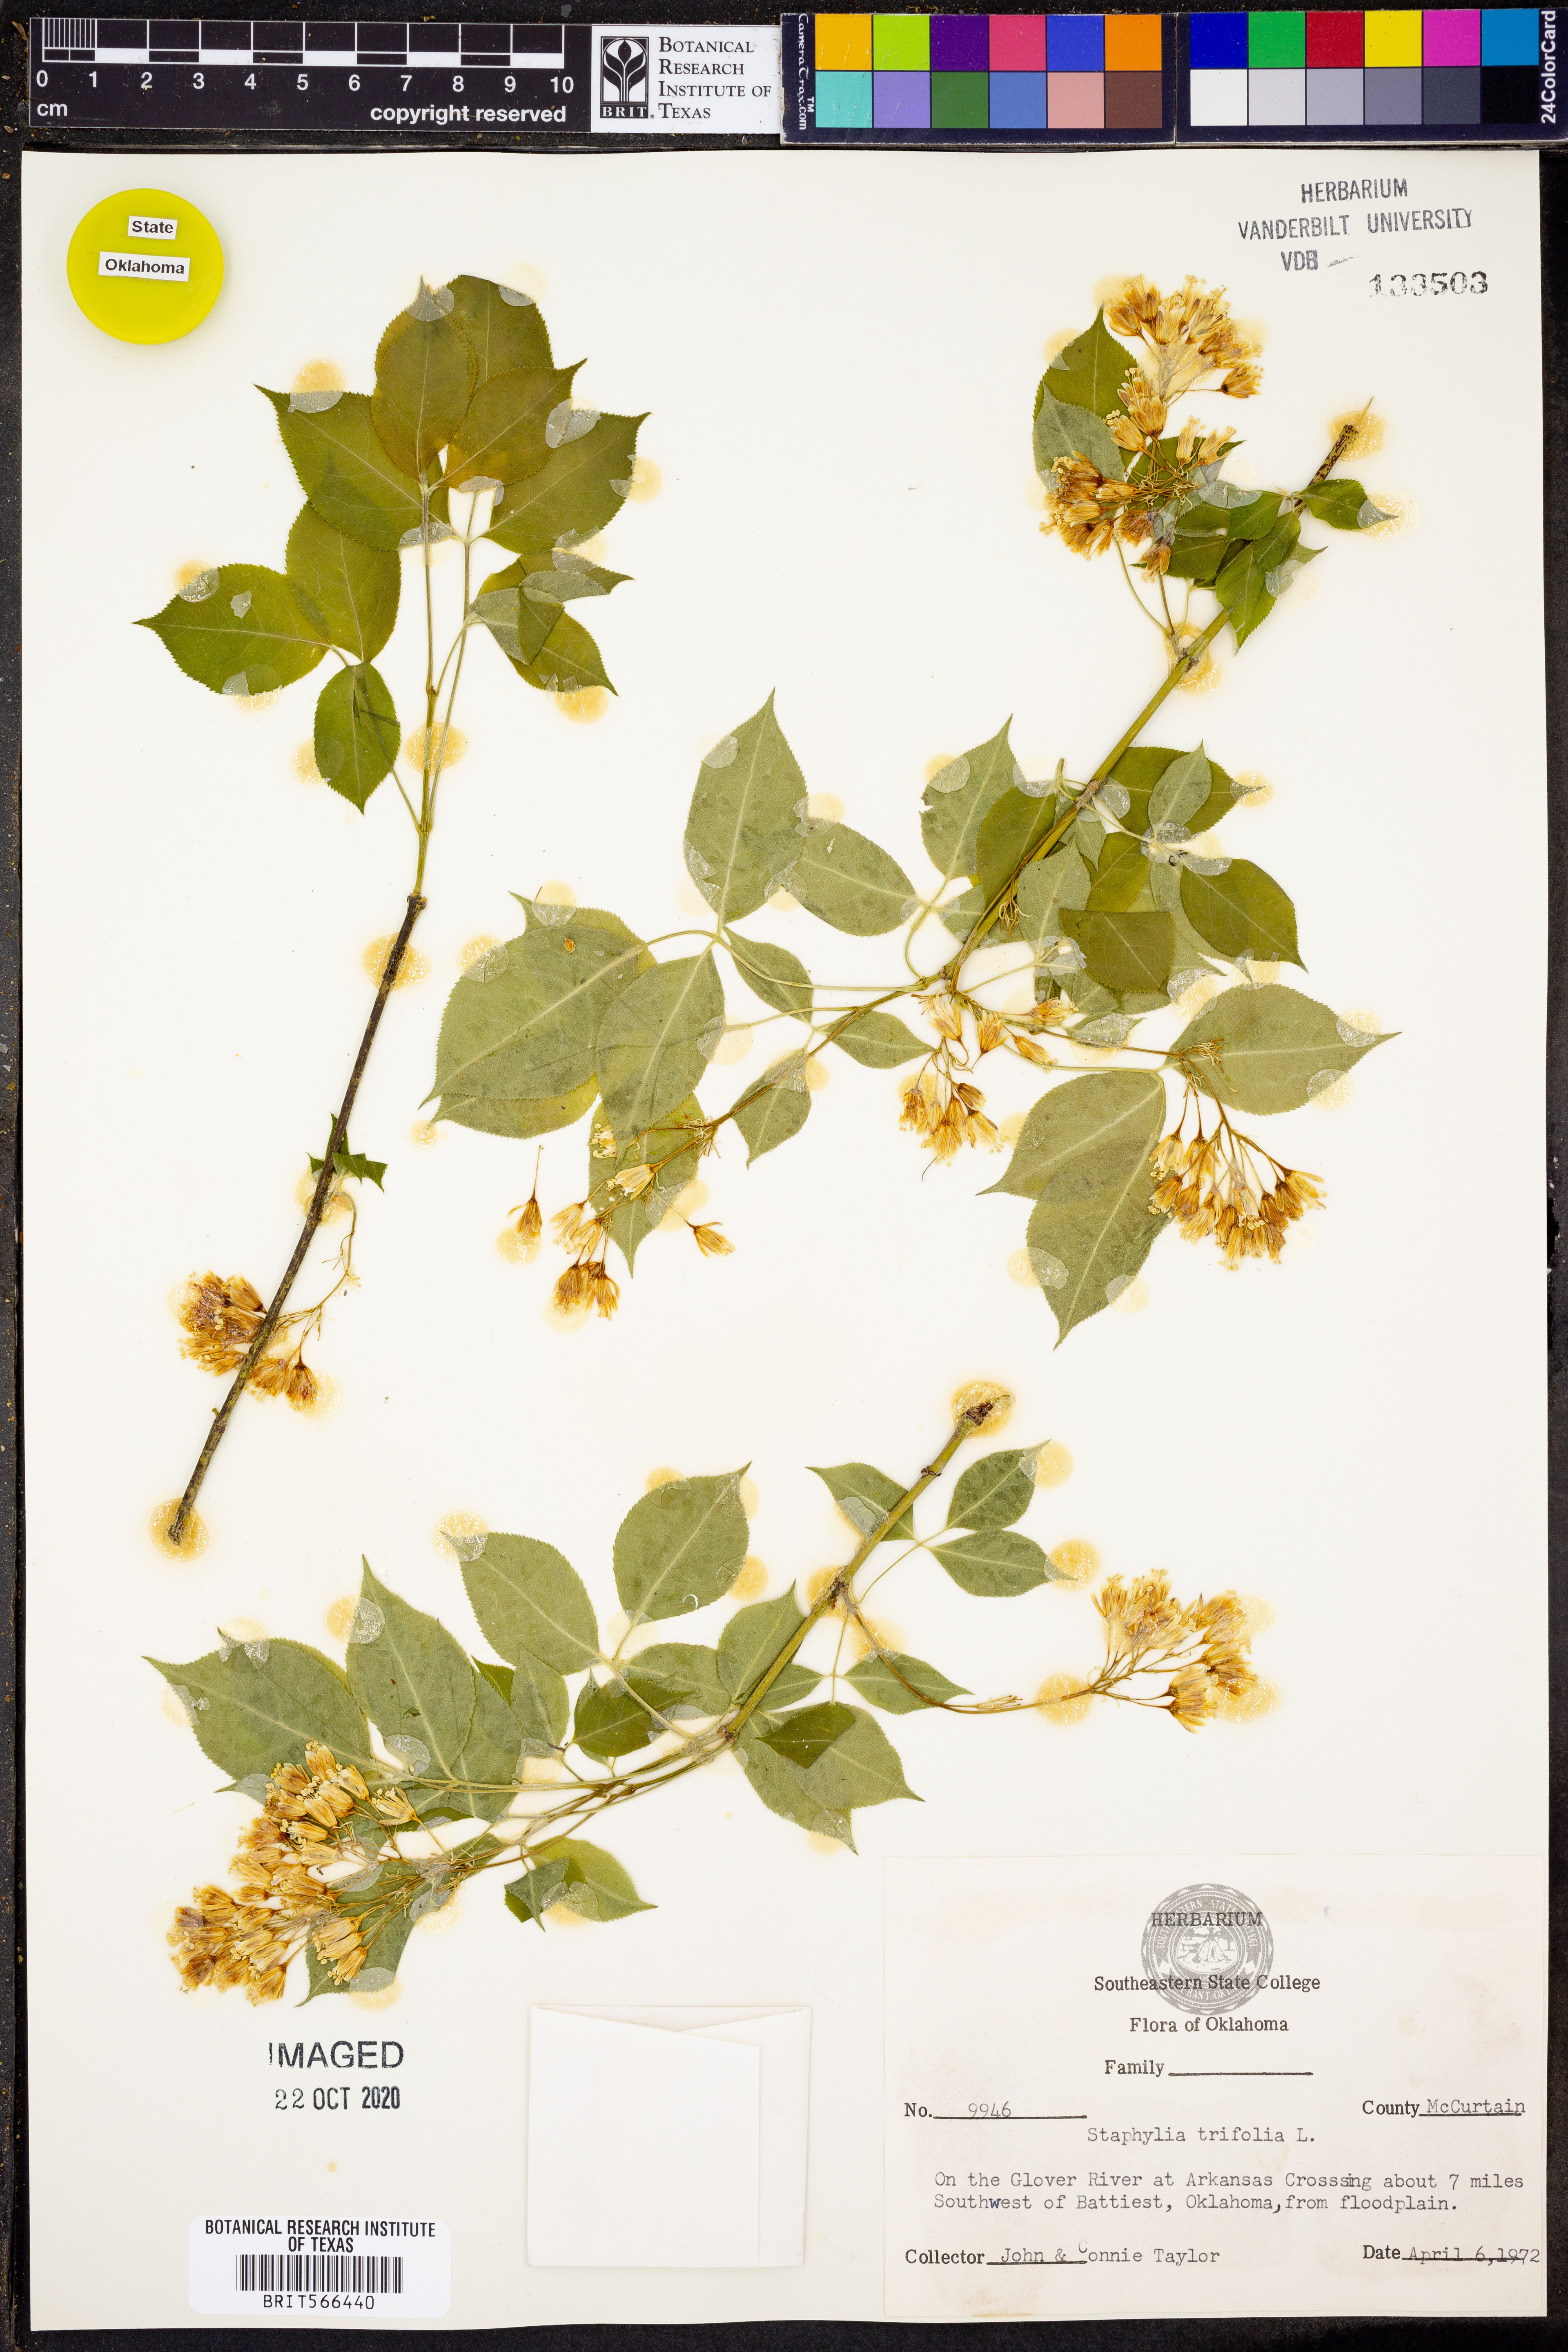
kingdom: Plantae
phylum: Tracheophyta
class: Magnoliopsida
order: Crossosomatales
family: Staphyleaceae
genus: Staphylea
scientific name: Staphylea trifolia
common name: American bladdernut
